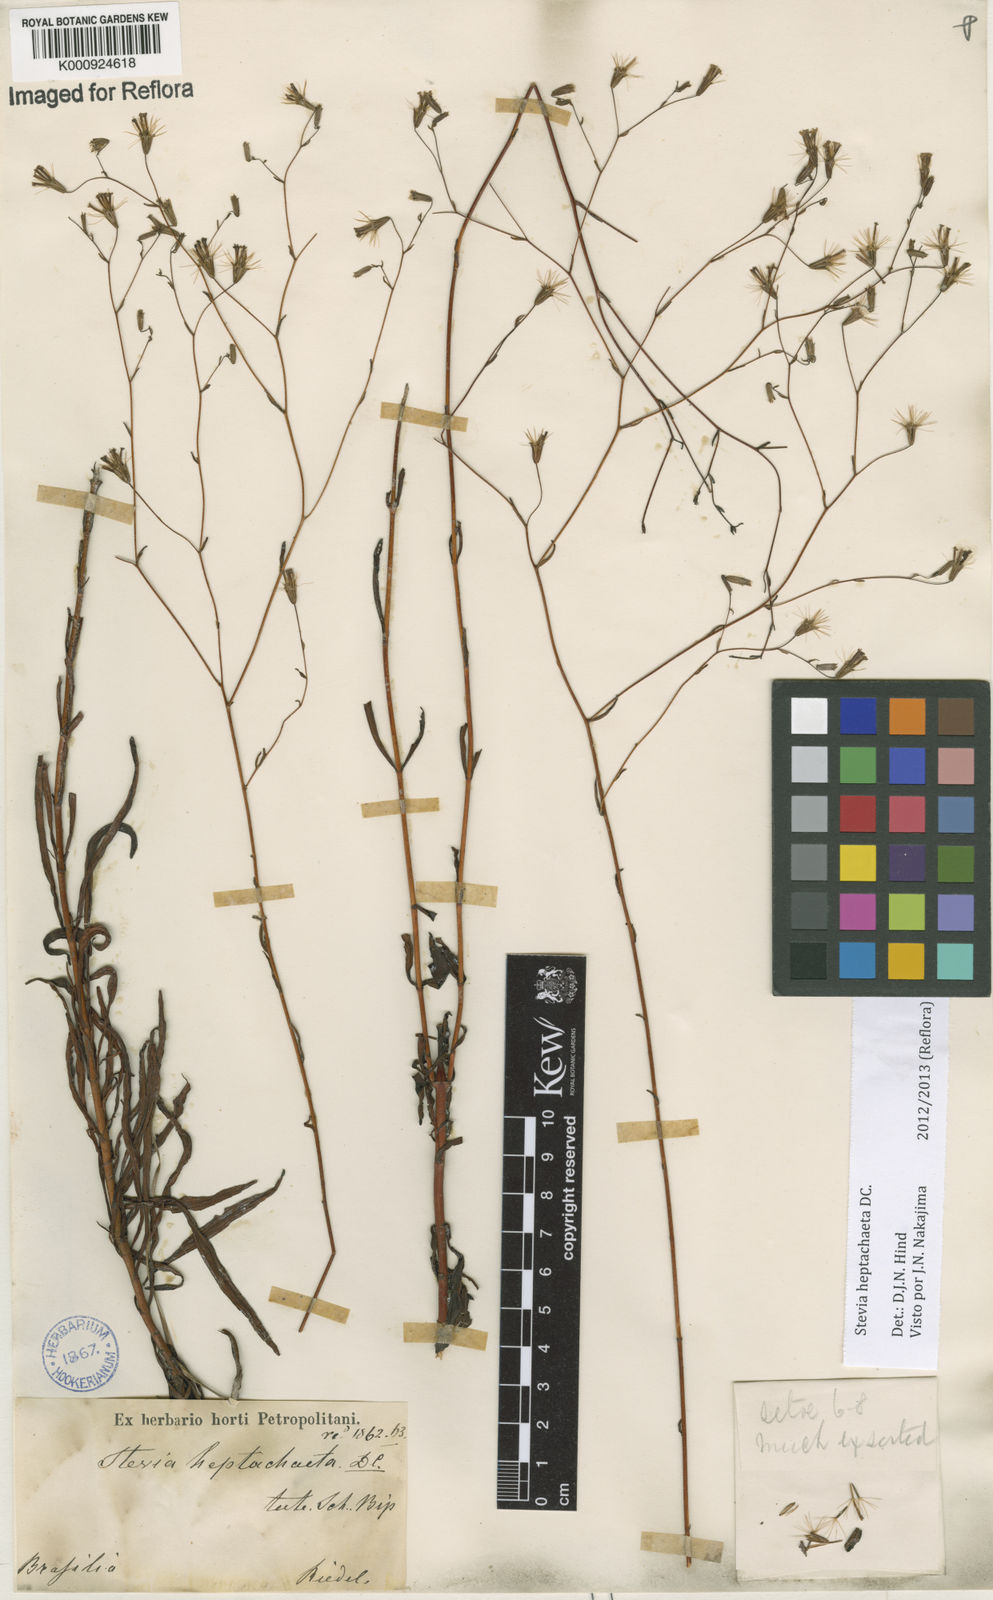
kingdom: Plantae
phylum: Tracheophyta
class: Magnoliopsida
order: Asterales
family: Asteraceae
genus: Stevia
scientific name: Stevia heptachaeta
